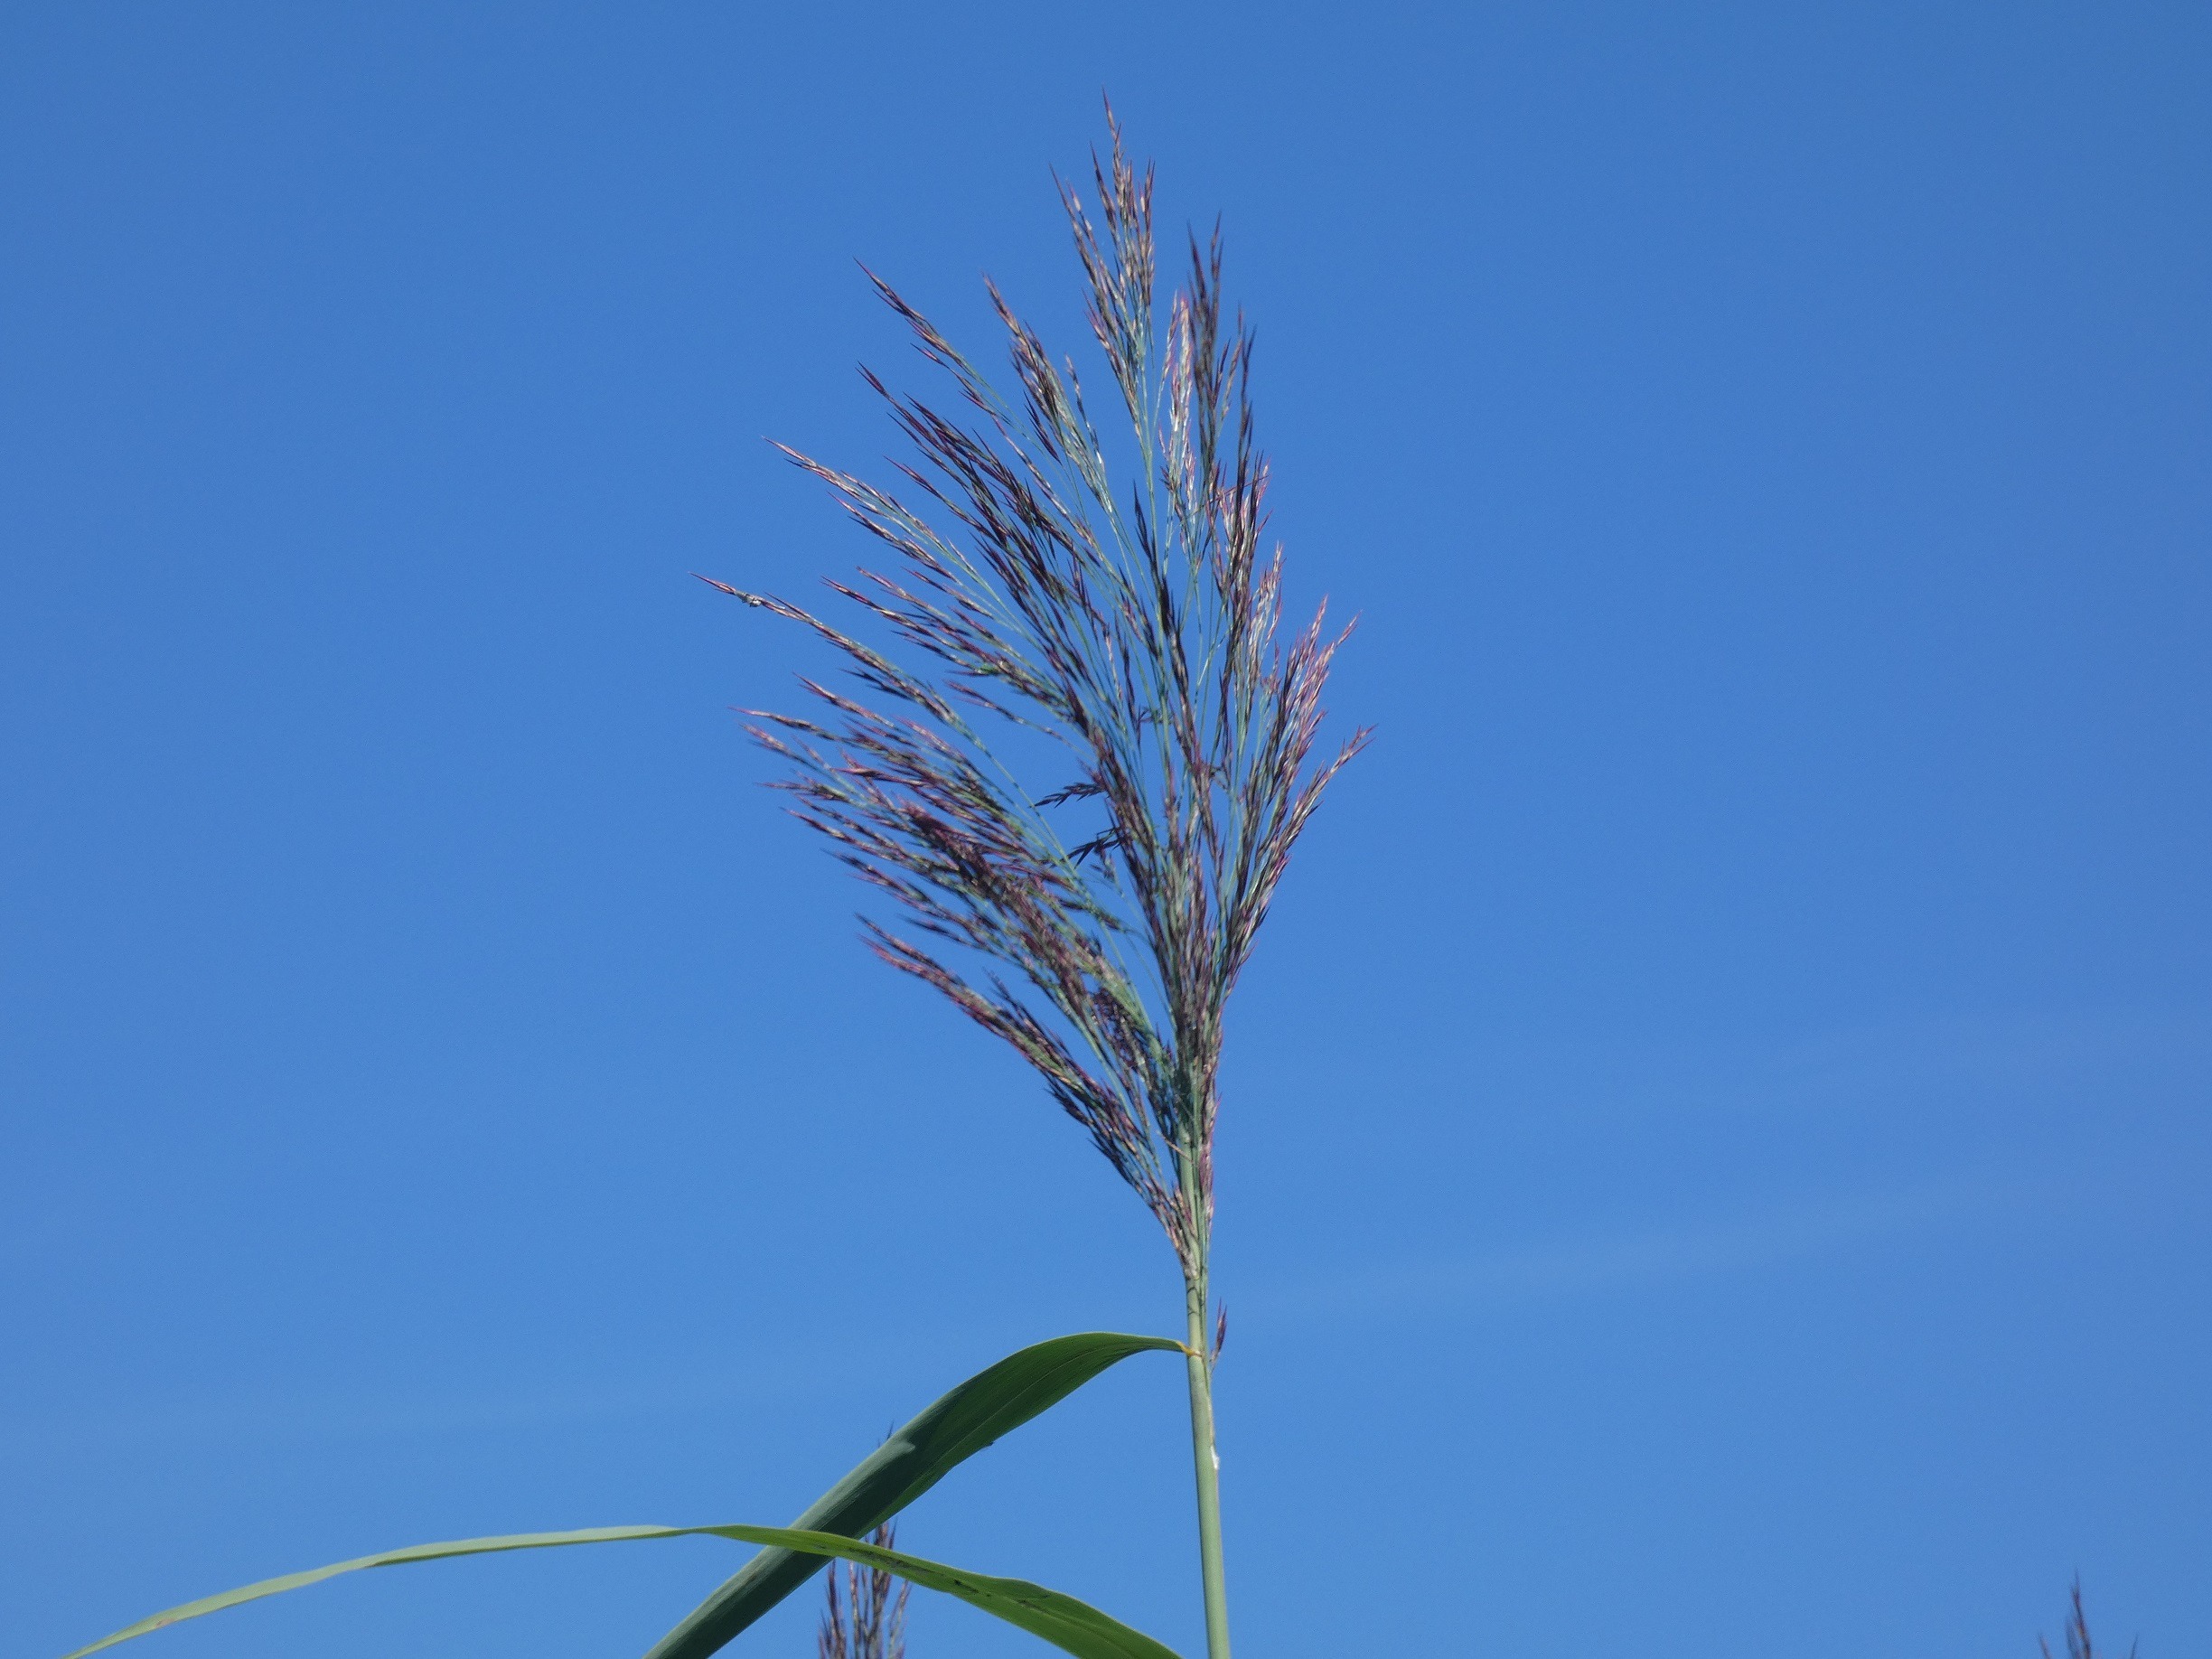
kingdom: Plantae
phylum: Tracheophyta
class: Liliopsida
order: Poales
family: Poaceae
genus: Phragmites
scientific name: Phragmites australis
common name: Tagrør
